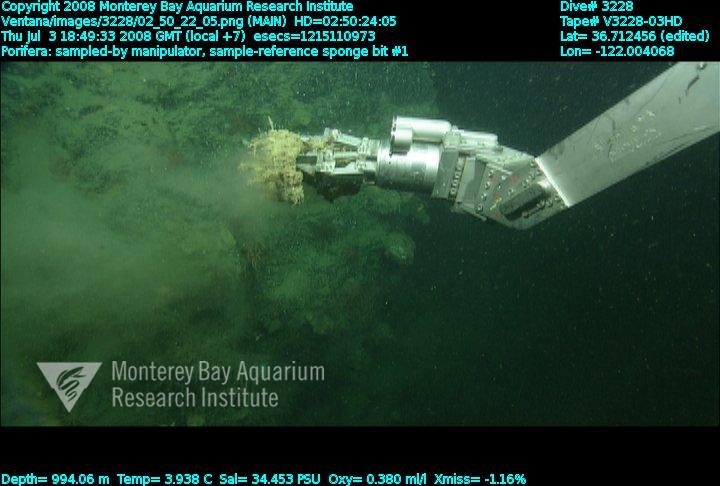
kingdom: Animalia
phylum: Porifera
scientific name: Porifera
